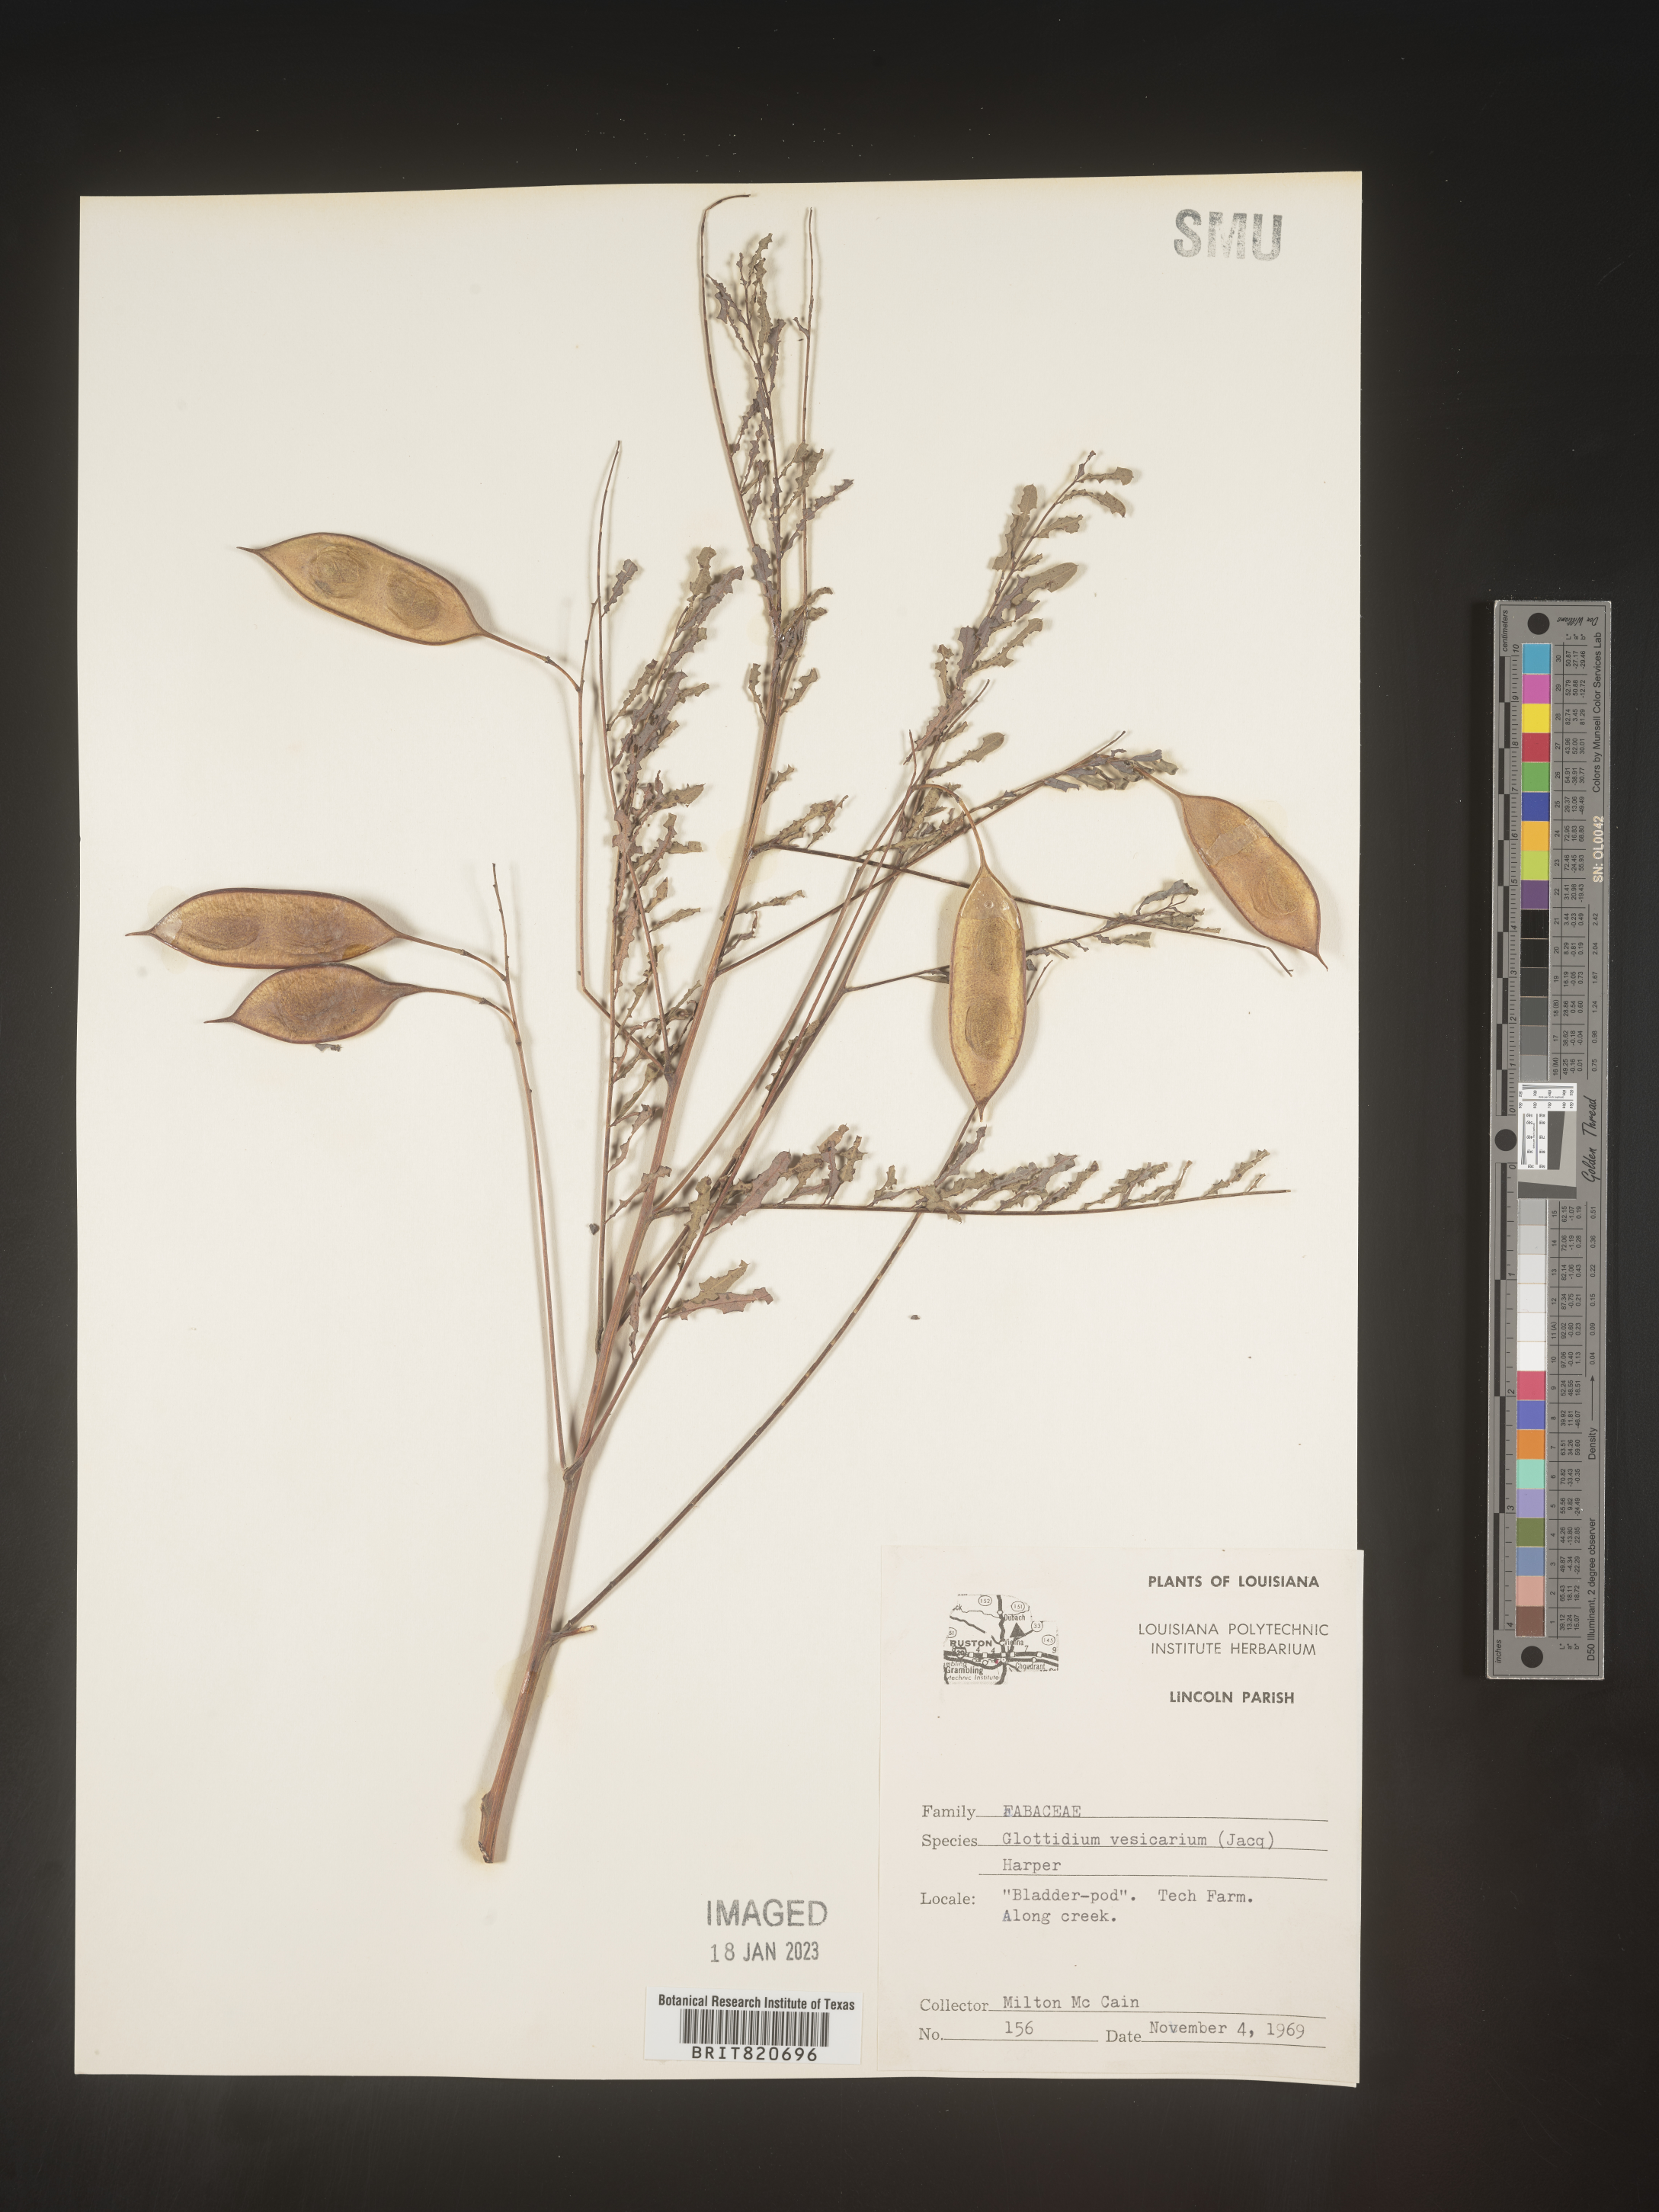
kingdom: Plantae
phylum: Tracheophyta
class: Magnoliopsida
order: Fabales
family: Fabaceae
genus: Sesbania
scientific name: Sesbania vesicaria
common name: Bagpod
